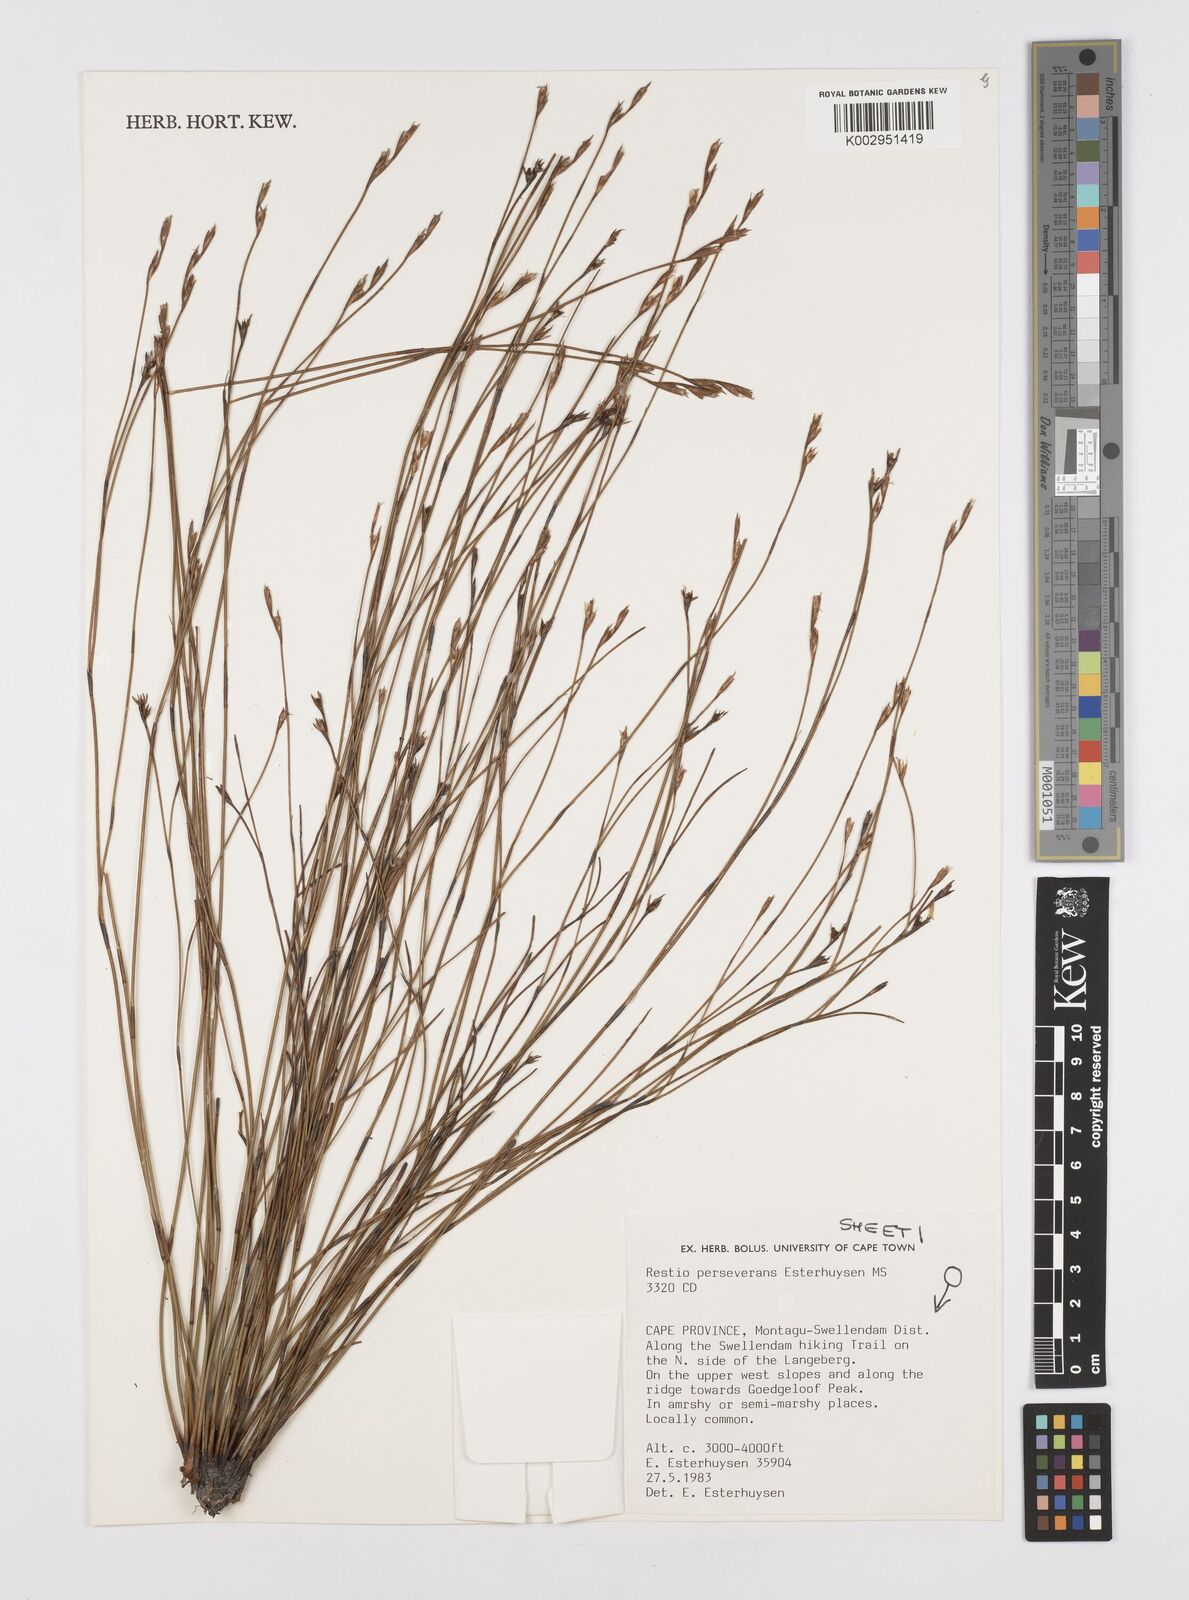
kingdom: Plantae
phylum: Tracheophyta
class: Liliopsida
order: Poales
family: Restionaceae
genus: Restio
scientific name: Restio perseverans
